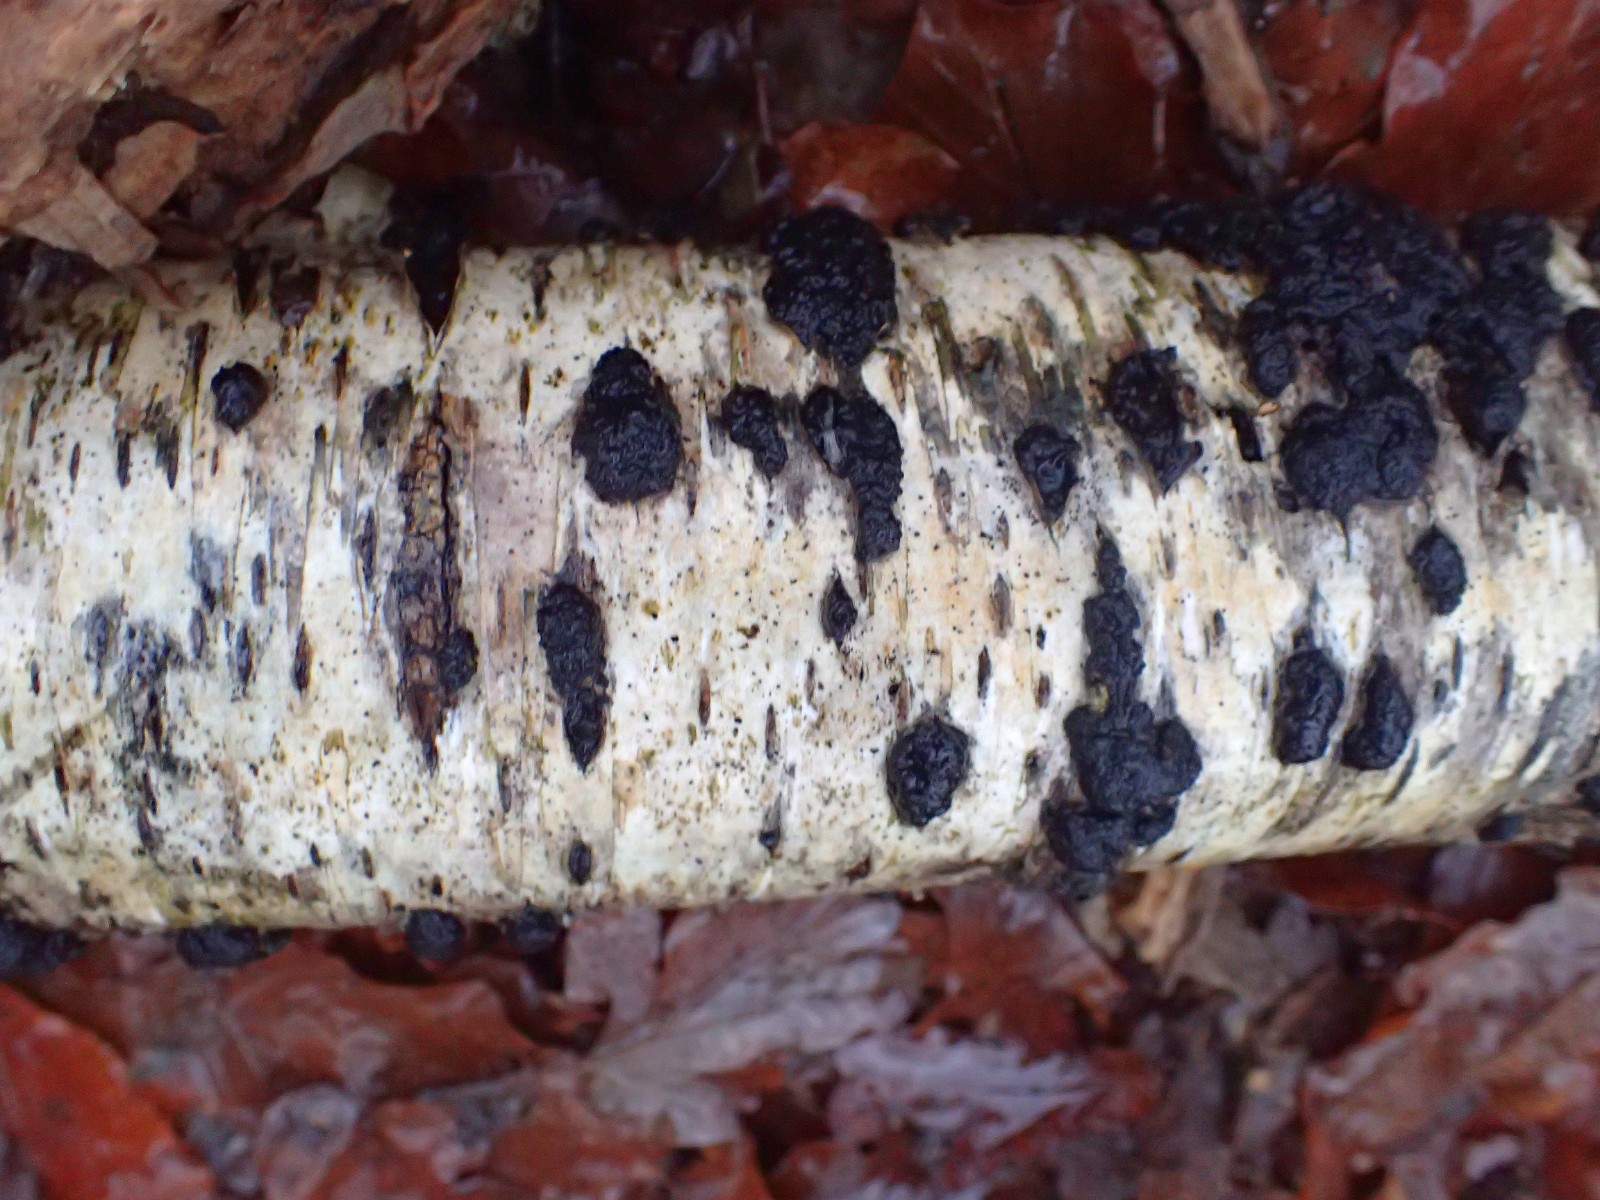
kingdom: Fungi
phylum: Ascomycota
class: Sordariomycetes
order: Xylariales
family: Hypoxylaceae
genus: Jackrogersella
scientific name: Jackrogersella multiformis
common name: foranderlig kulbær
